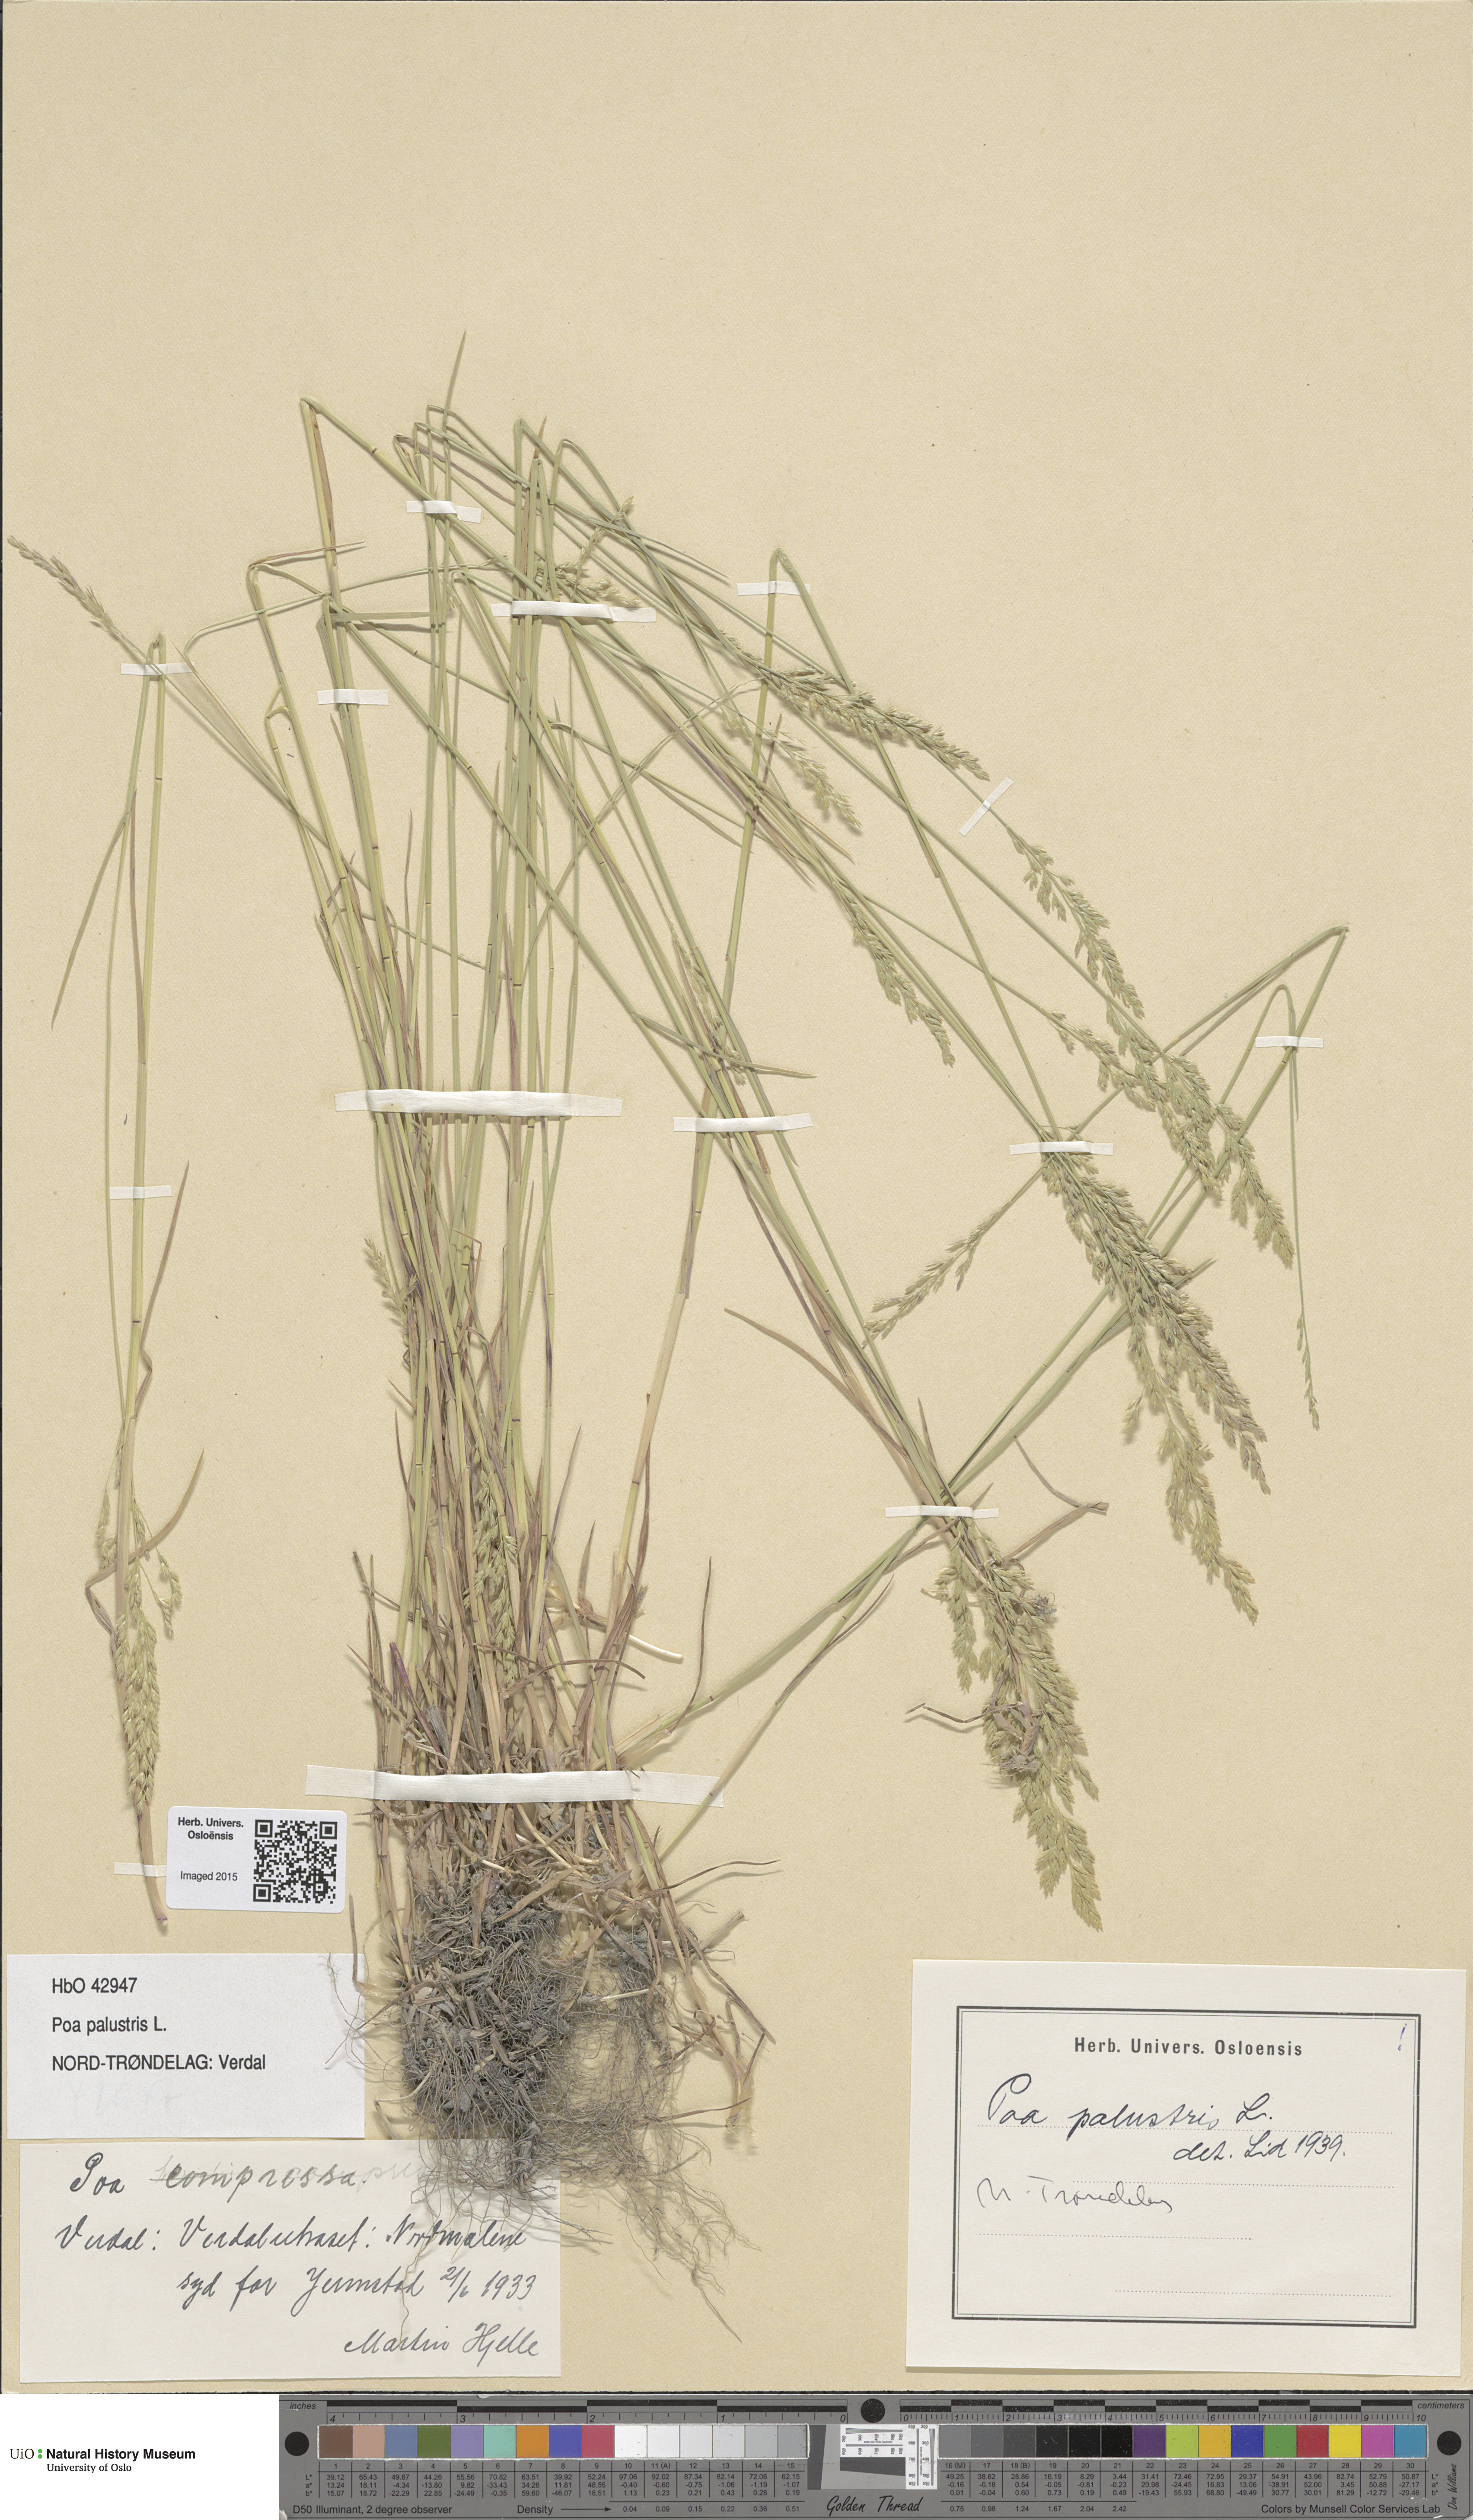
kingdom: Plantae
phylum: Tracheophyta
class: Liliopsida
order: Poales
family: Poaceae
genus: Poa
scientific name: Poa palustris
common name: Swamp meadow-grass
